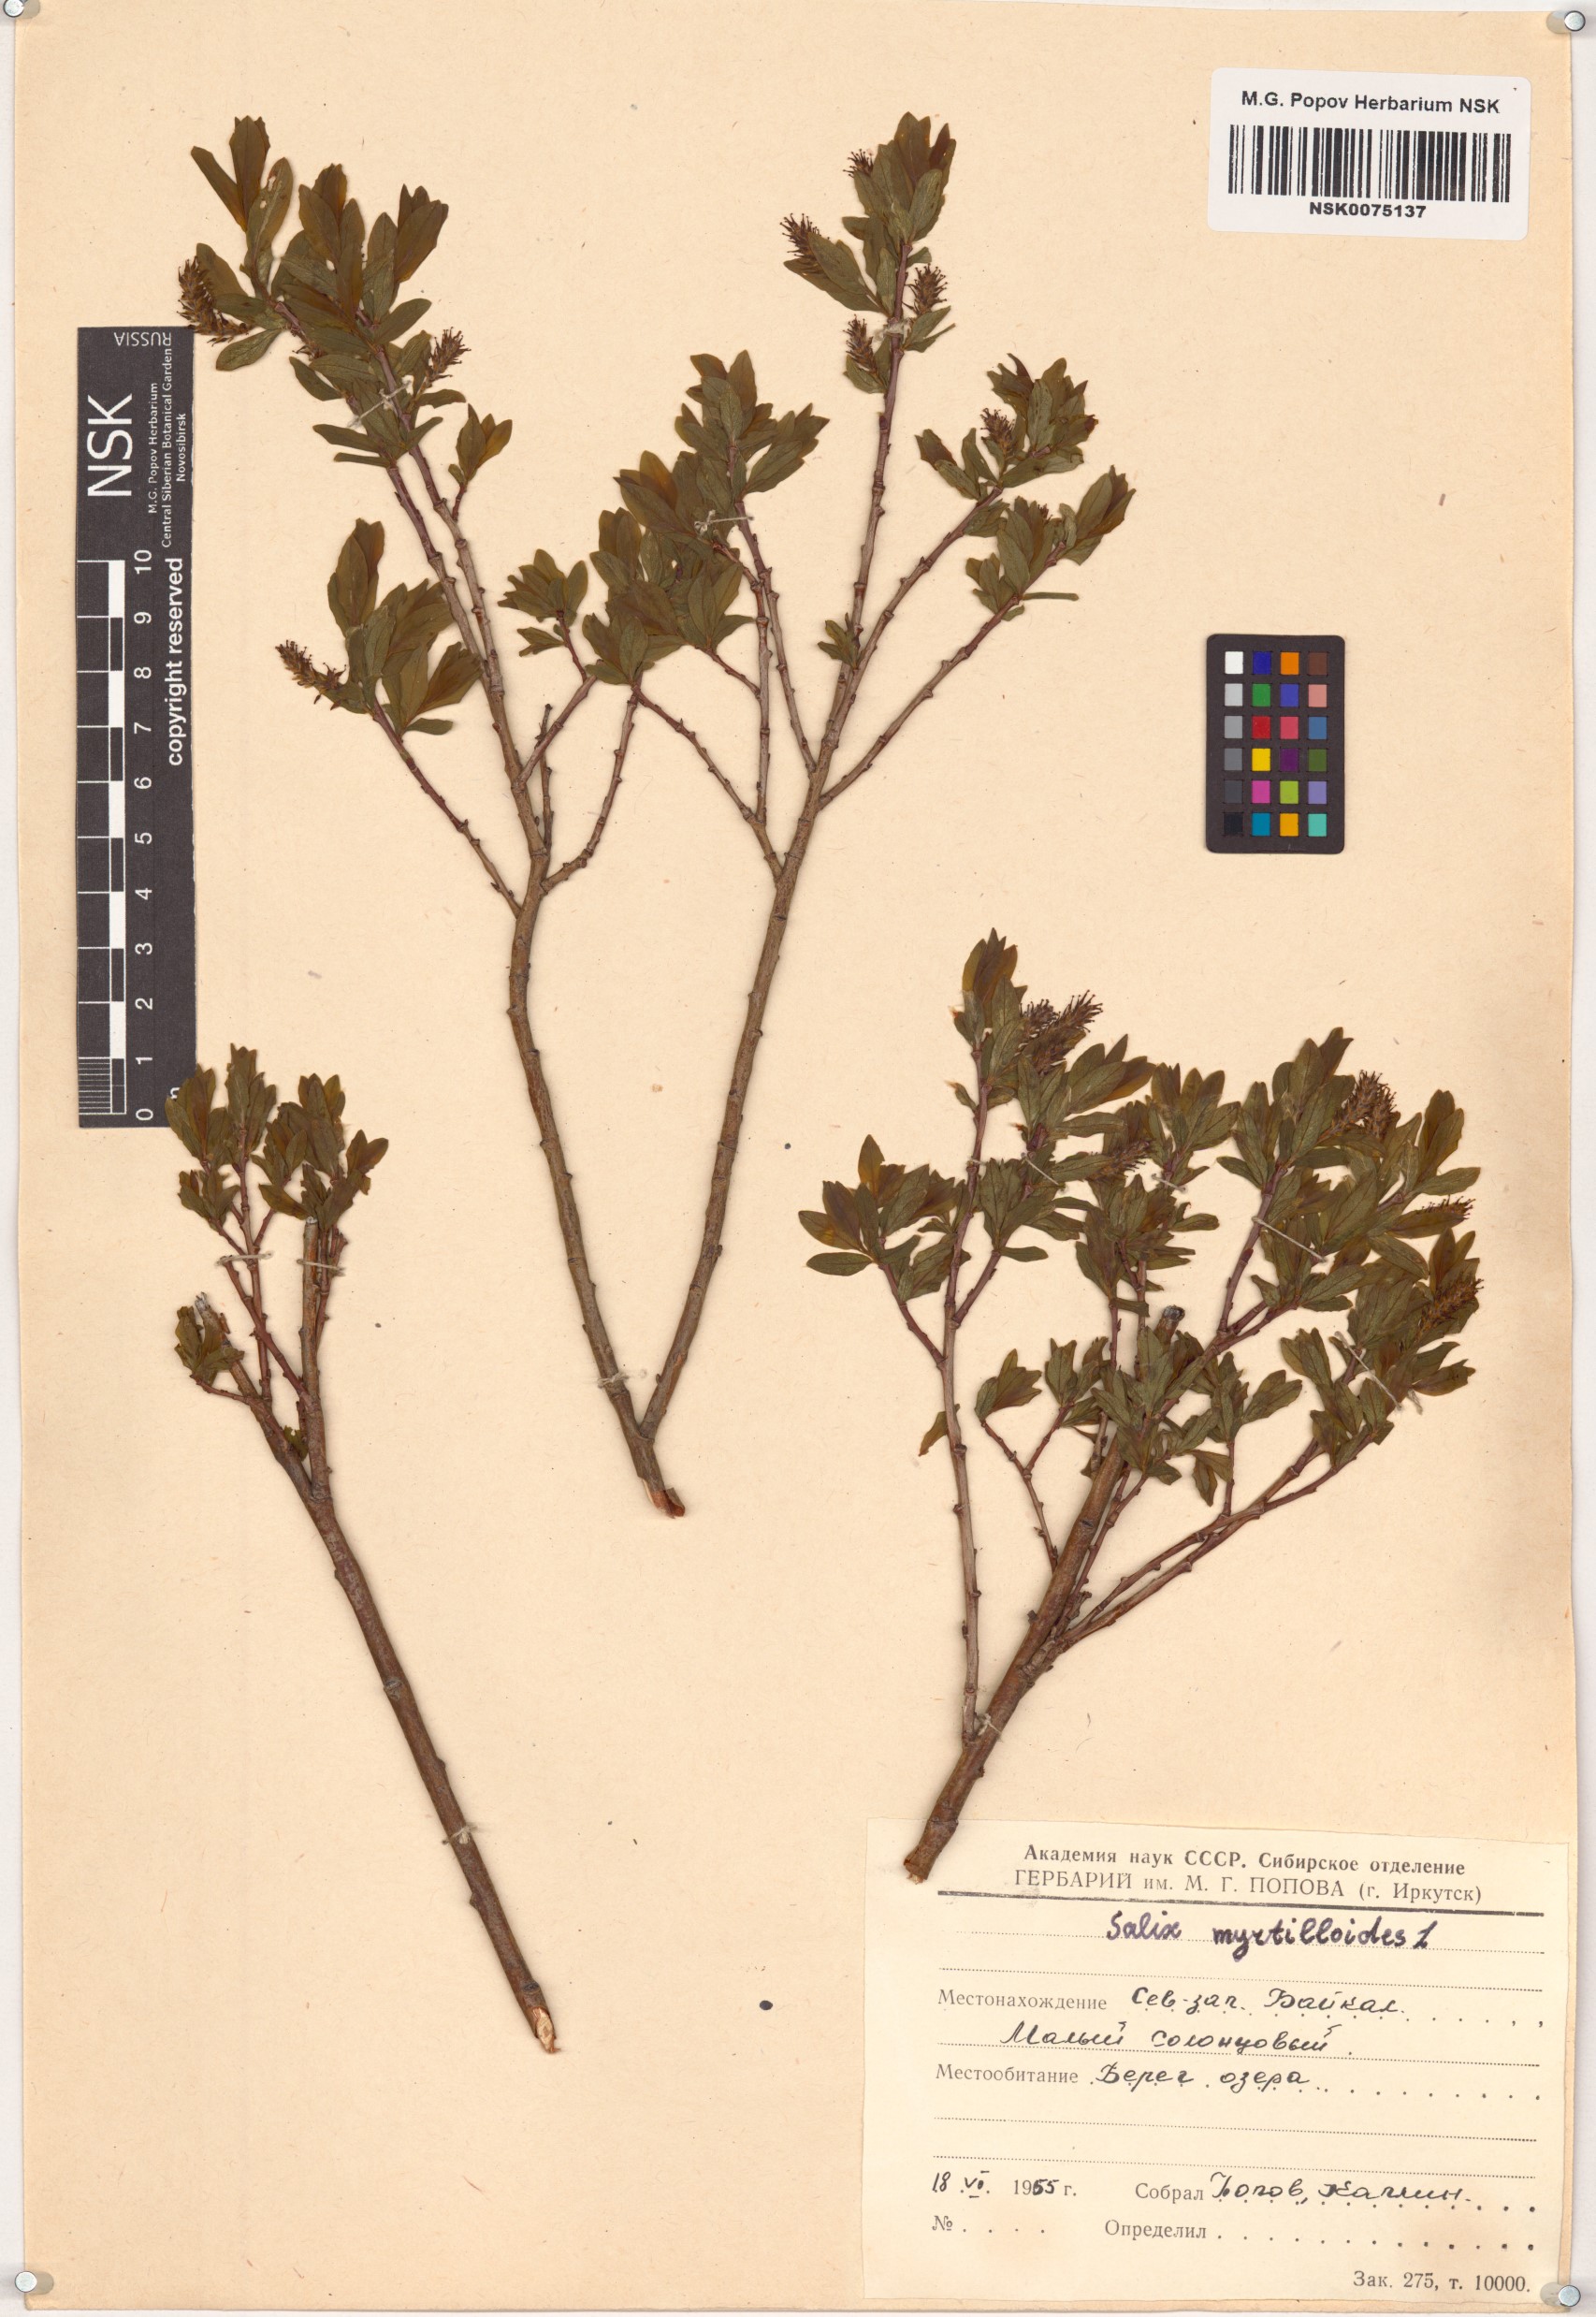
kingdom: Plantae
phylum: Tracheophyta
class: Magnoliopsida
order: Malpighiales
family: Salicaceae
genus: Salix
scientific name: Salix myrtilloides
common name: Myrtle-leaved willow
